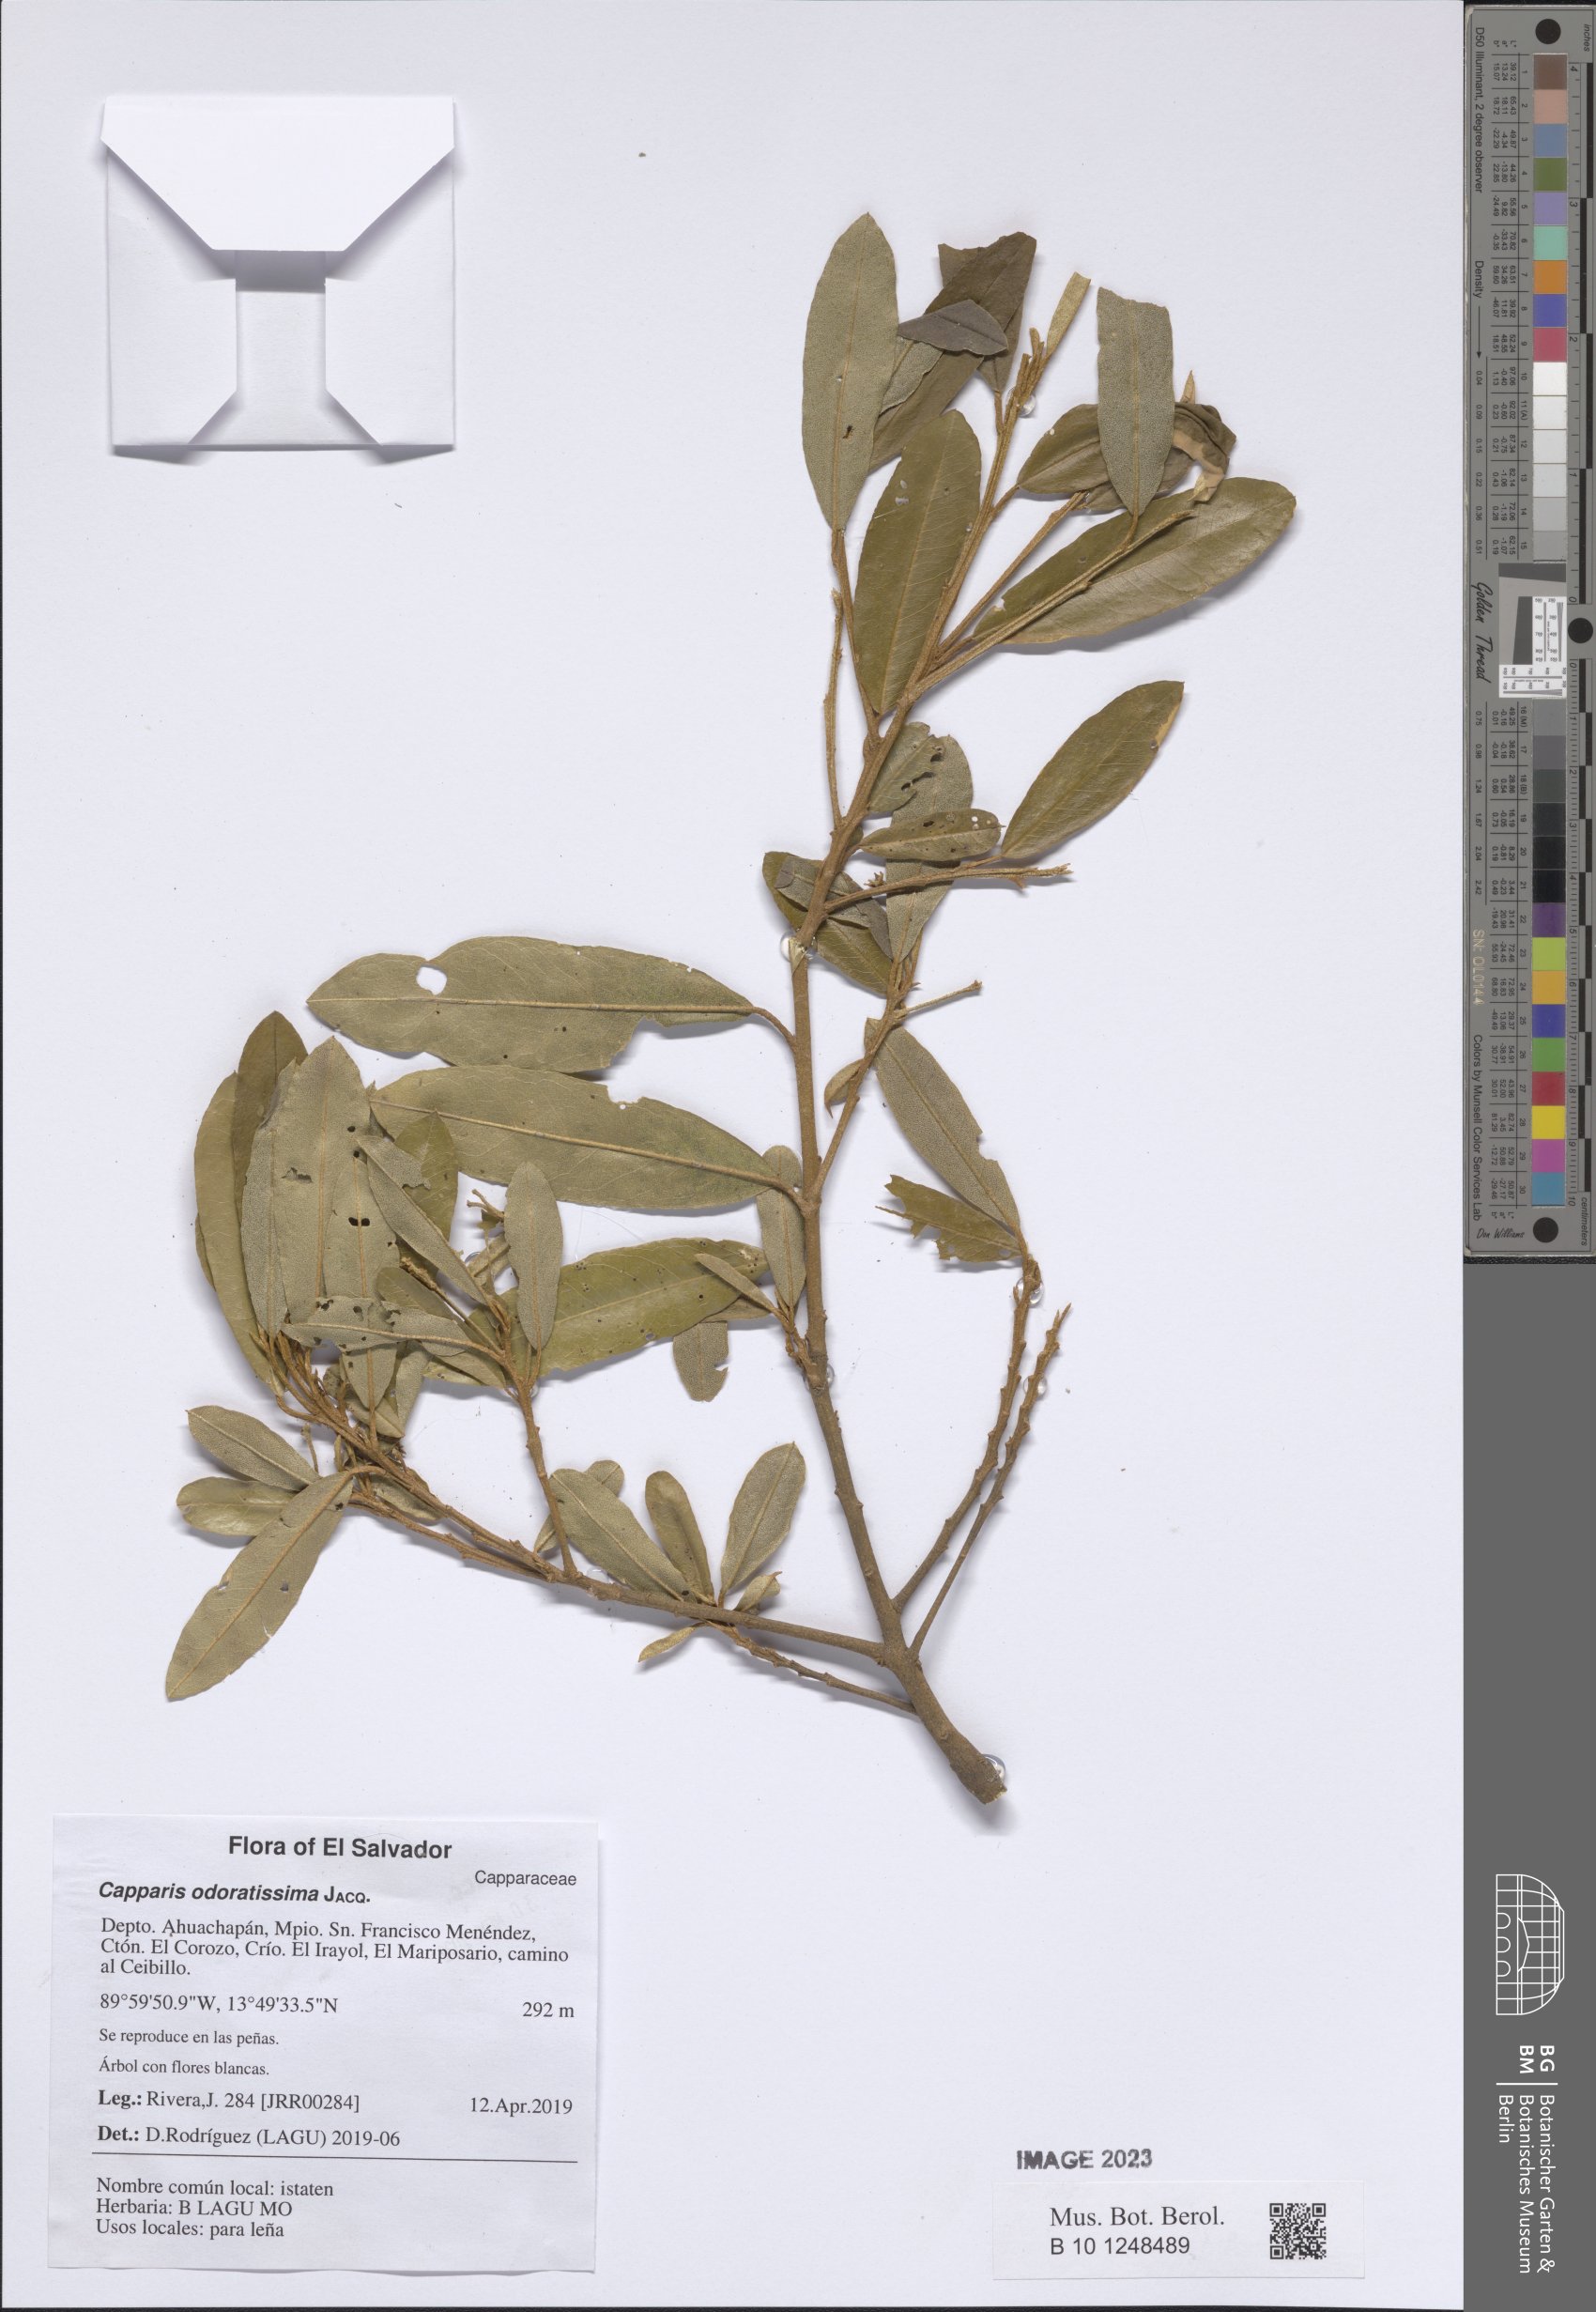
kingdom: Plantae
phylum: Tracheophyta
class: Magnoliopsida
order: Brassicales
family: Capparaceae
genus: Quadrella
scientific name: Quadrella odoratissima
